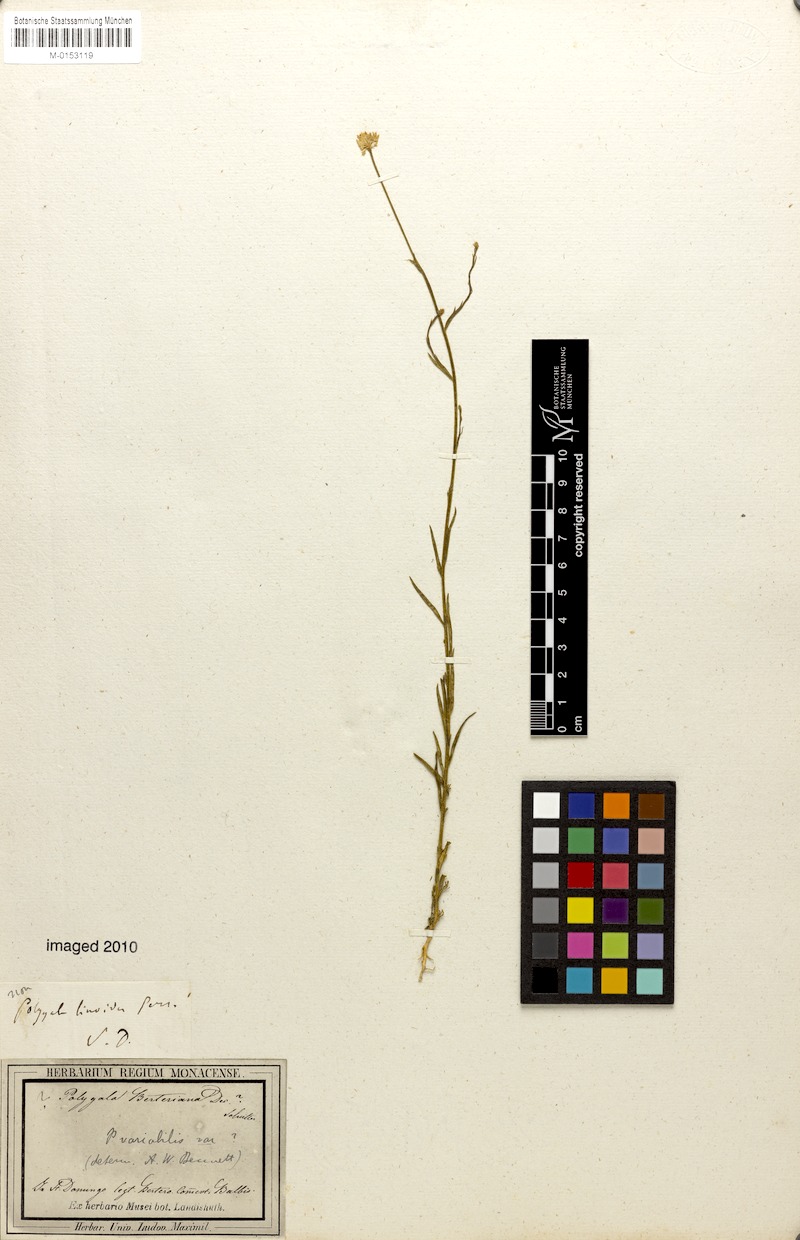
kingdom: Plantae
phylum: Tracheophyta
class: Magnoliopsida
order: Fabales
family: Polygalaceae
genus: Polygala
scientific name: Polygala longicaulis
